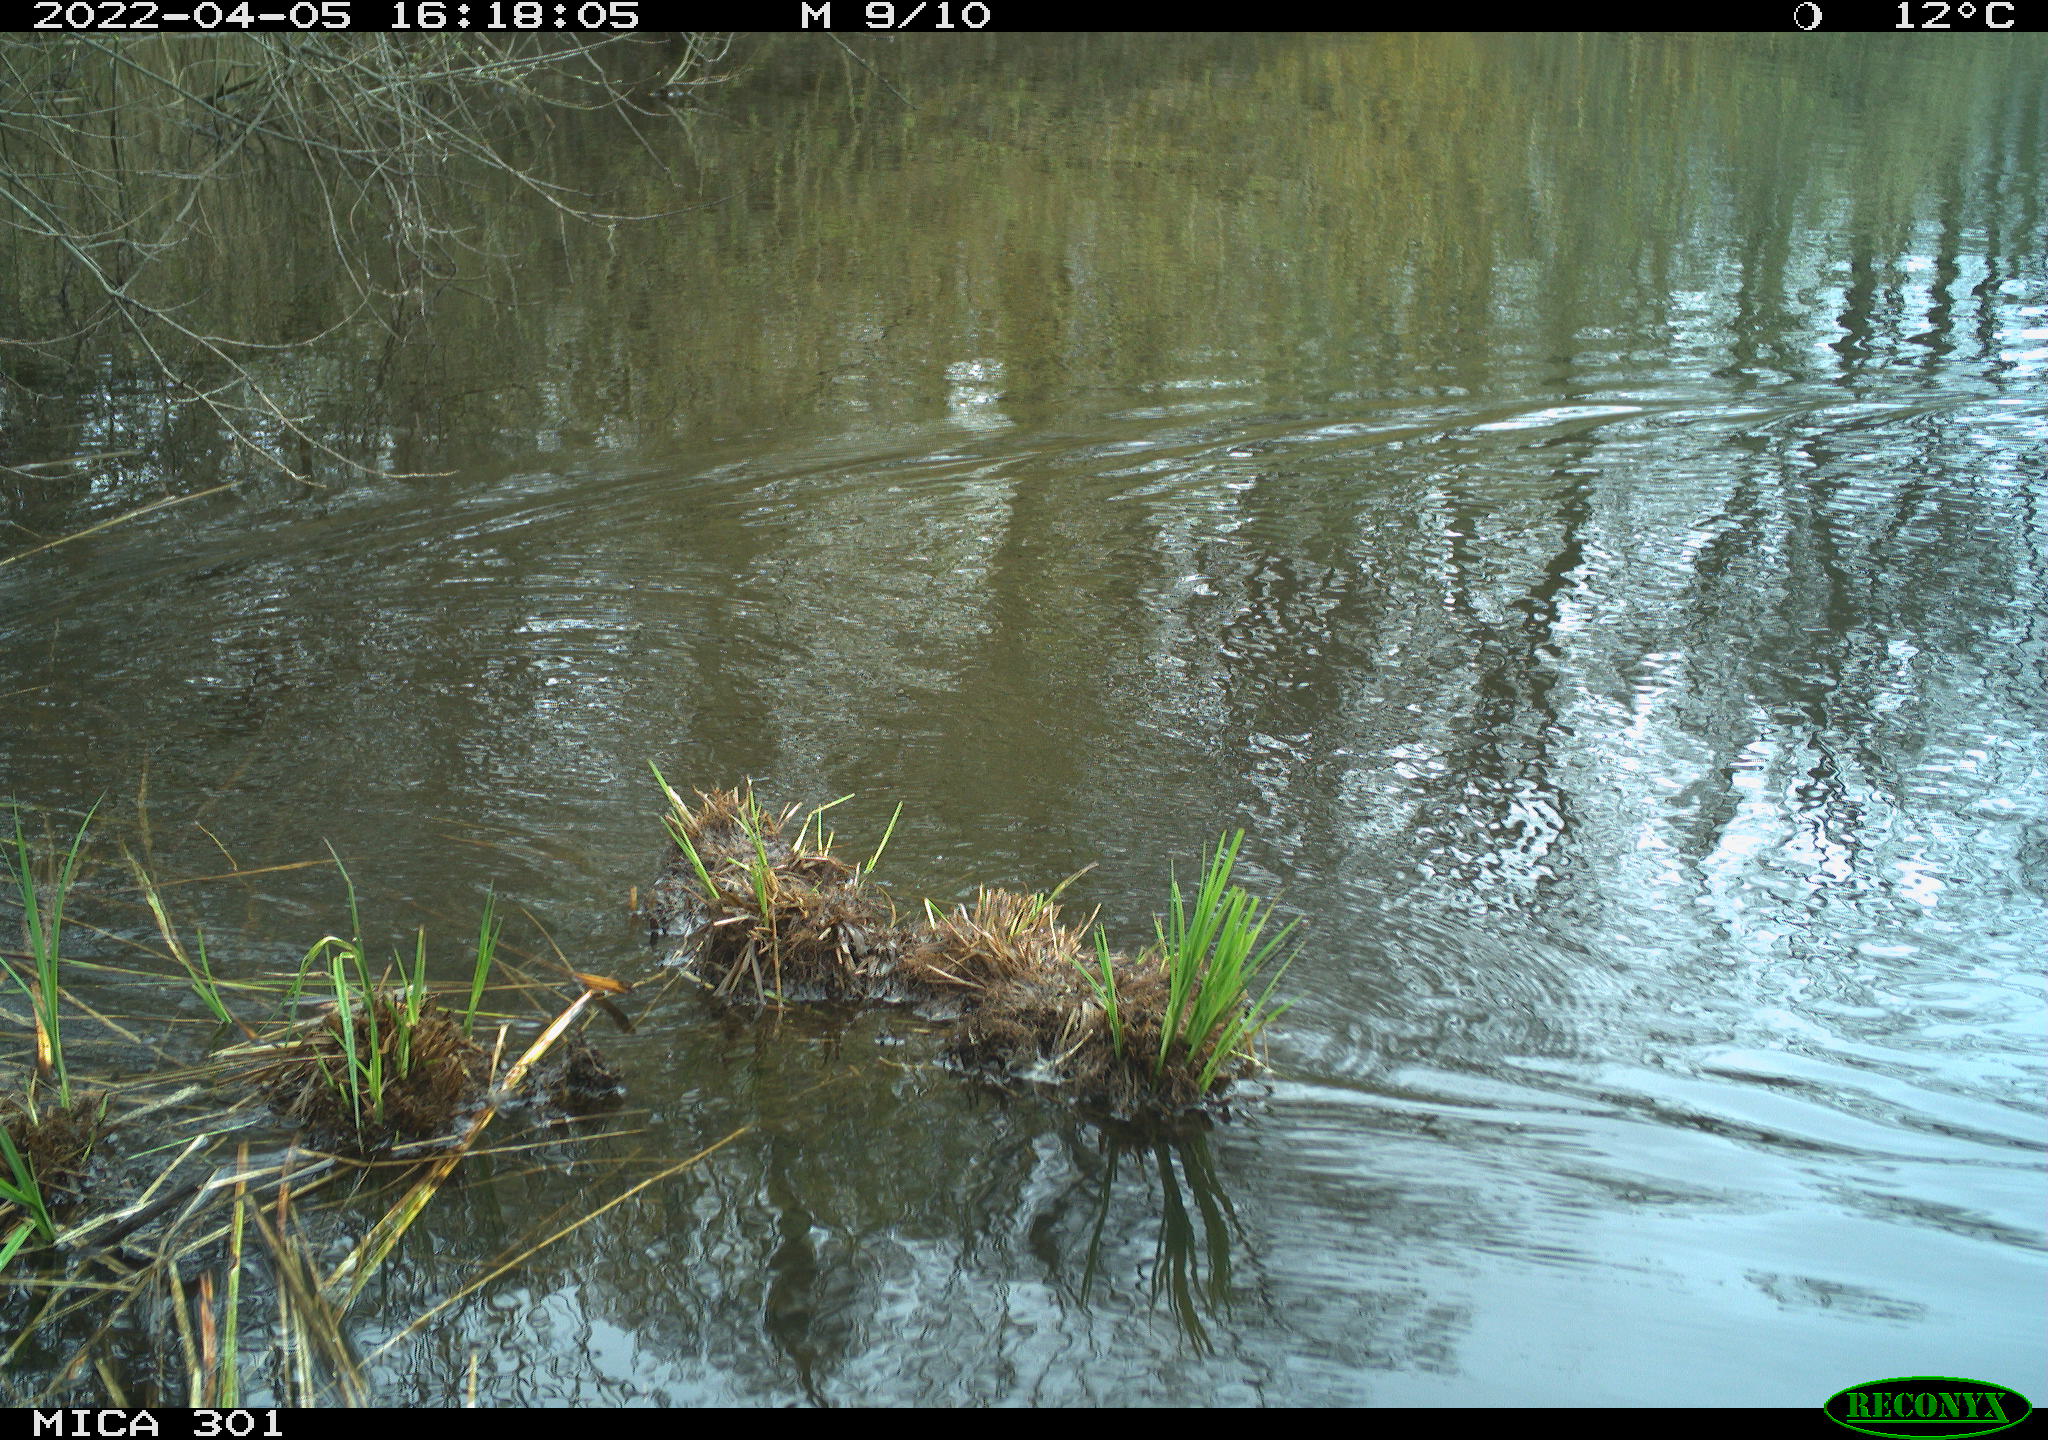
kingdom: Animalia
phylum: Chordata
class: Aves
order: Anseriformes
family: Anatidae
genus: Anas
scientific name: Anas platyrhynchos
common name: Mallard
